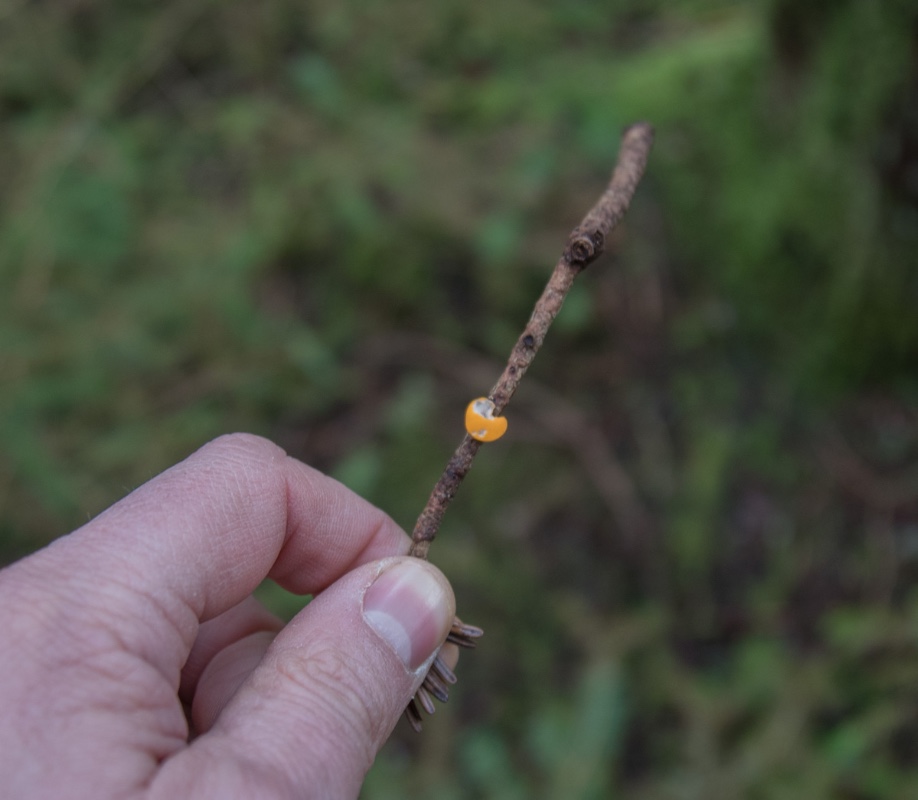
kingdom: Fungi
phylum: Ascomycota
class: Pezizomycetes
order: Pezizales
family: Sarcoscyphaceae
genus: Pithya
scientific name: Pithya vulgaris
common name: stor dukatbæger
